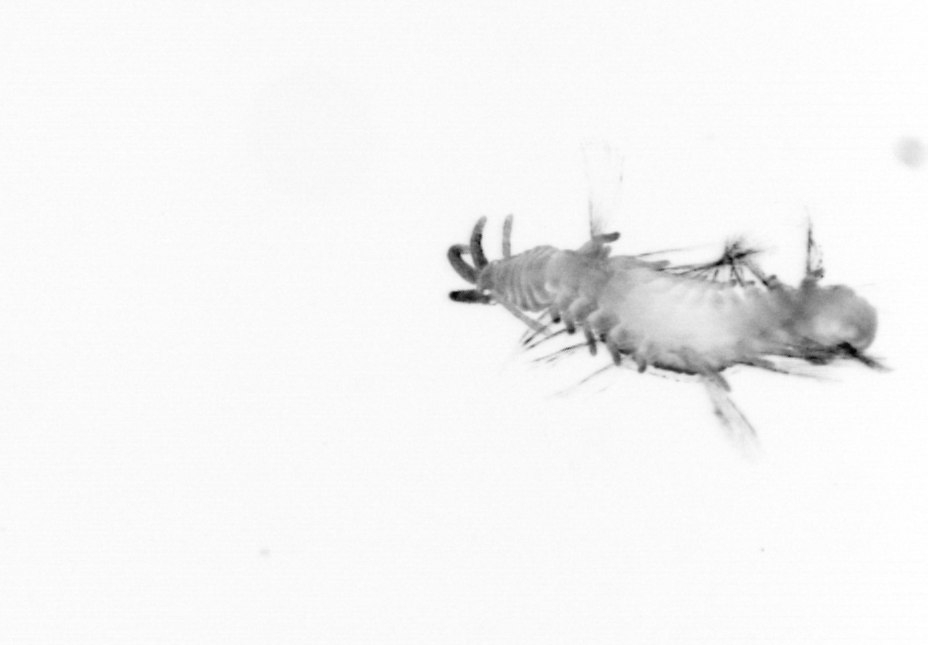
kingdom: Animalia
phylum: Annelida
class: Polychaeta
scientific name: Polychaeta
